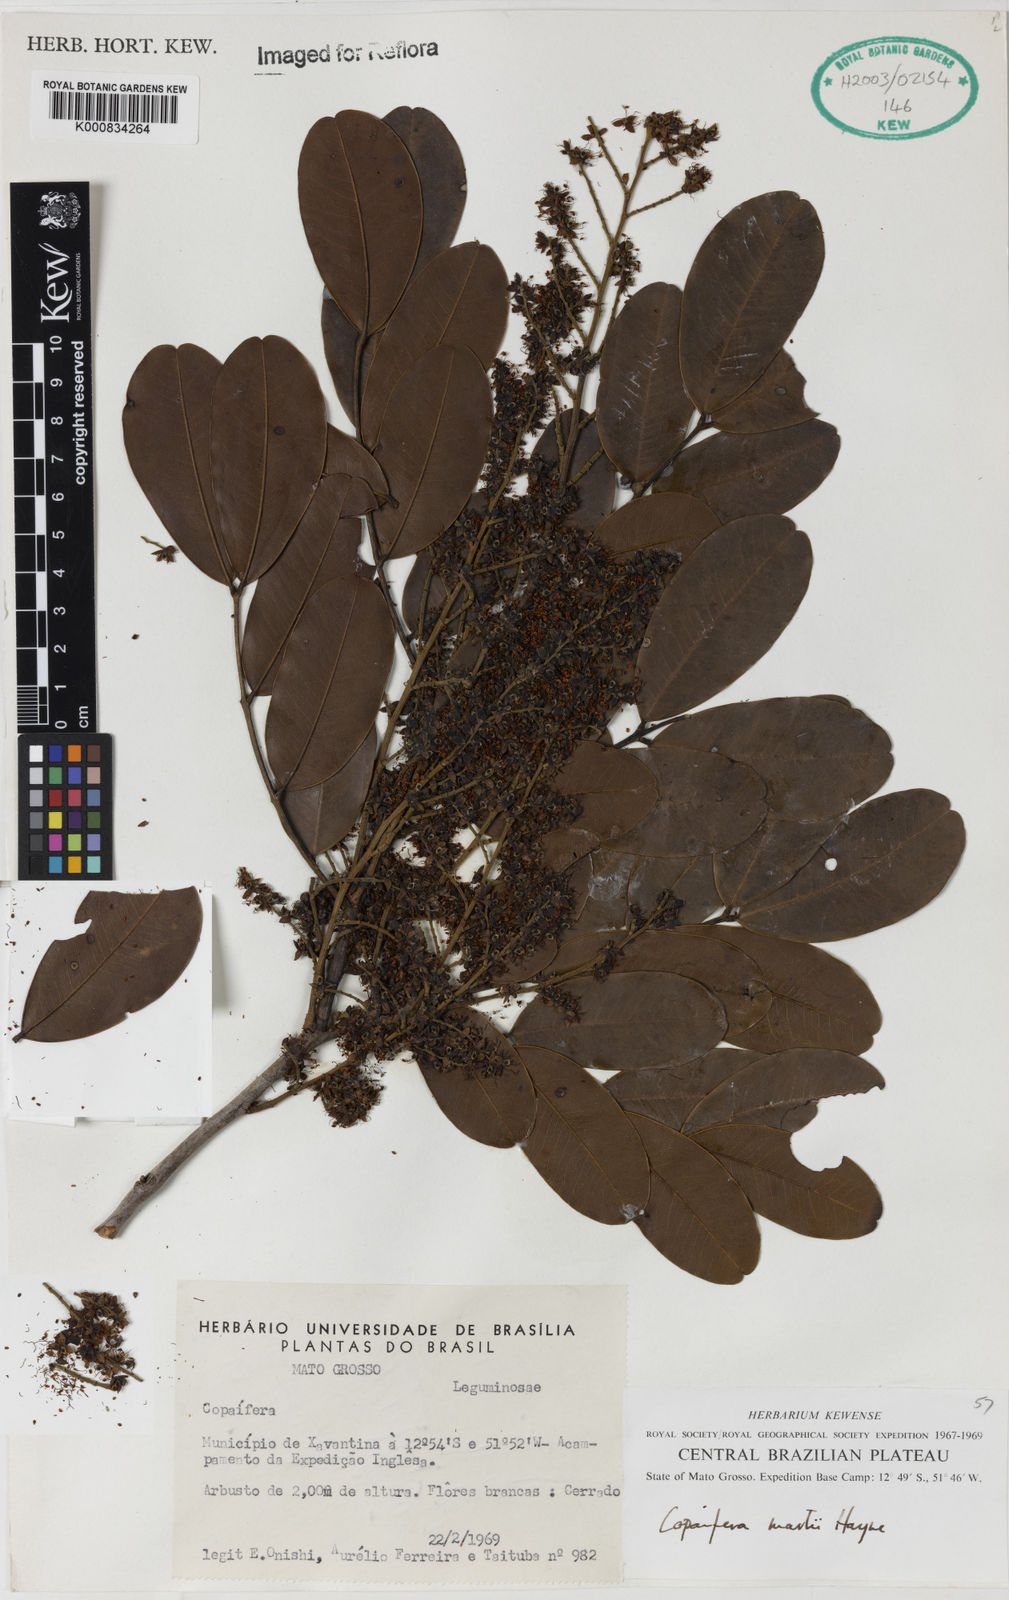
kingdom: Plantae
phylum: Tracheophyta
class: Magnoliopsida
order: Fabales
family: Fabaceae
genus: Copaifera
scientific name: Copaifera martii
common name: Copaiba
